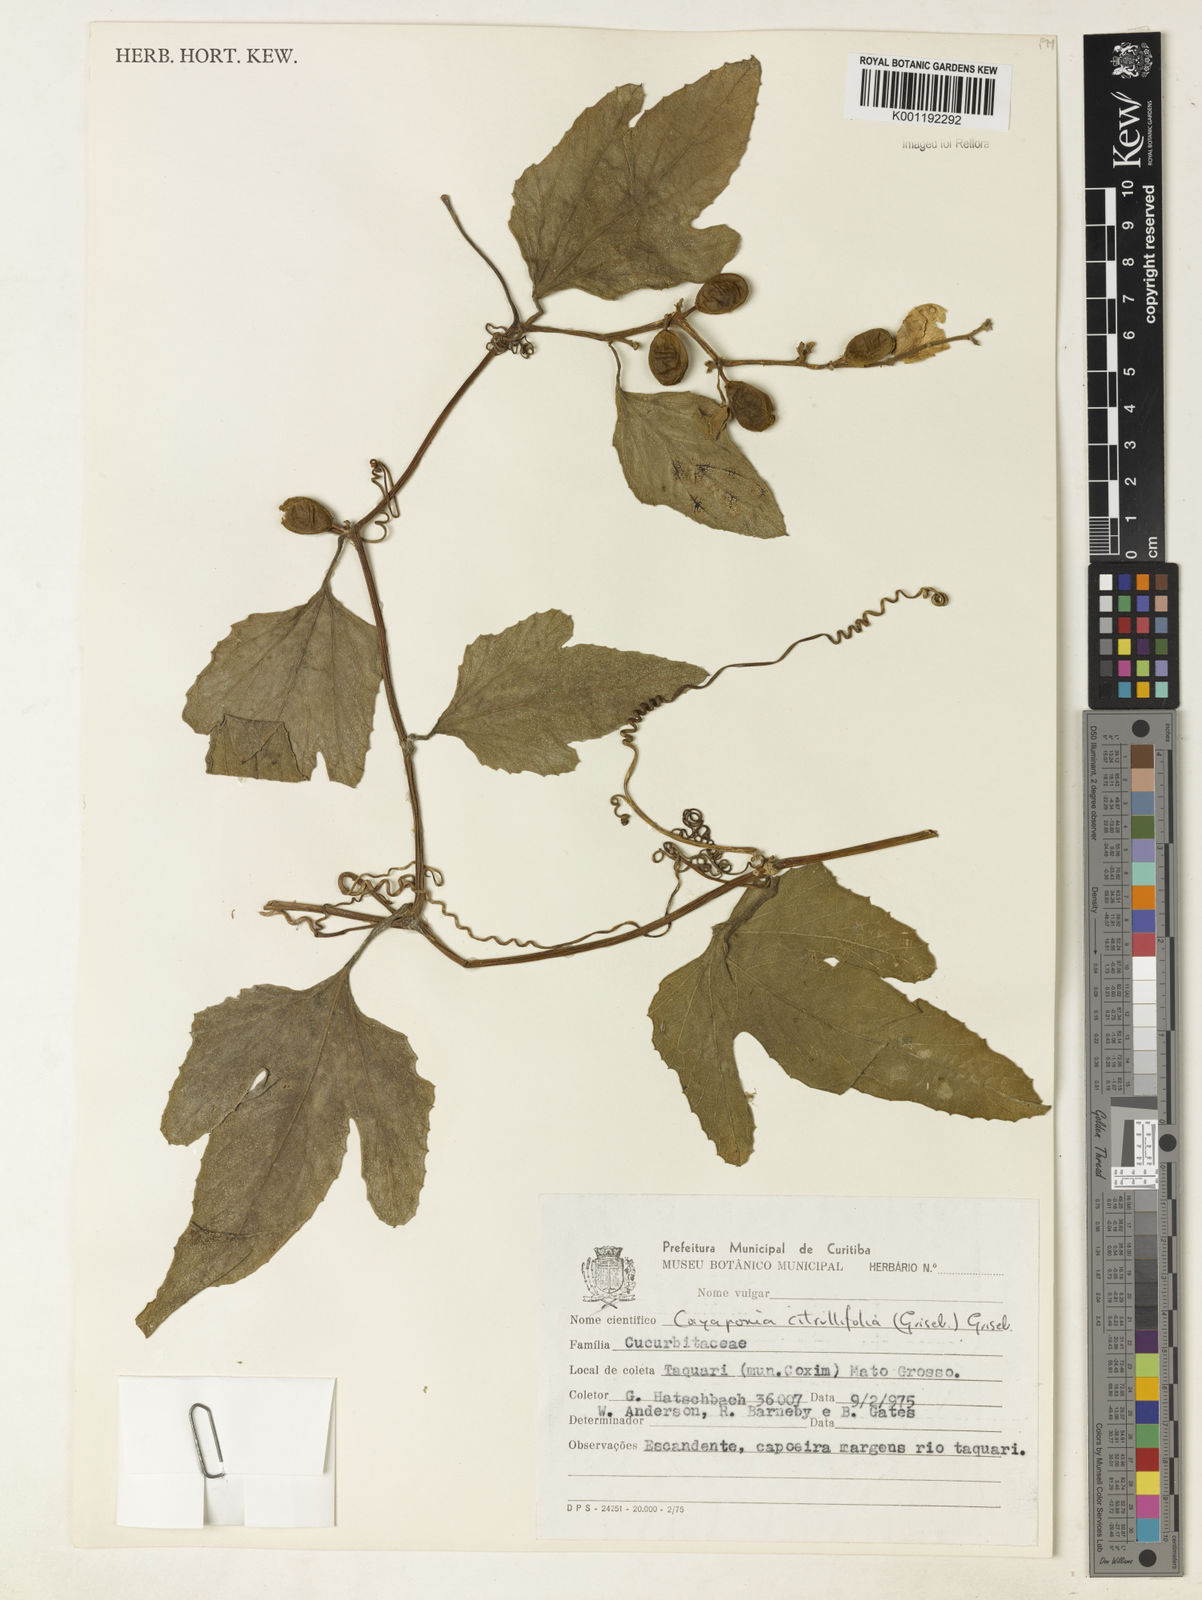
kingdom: Plantae
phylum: Tracheophyta
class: Magnoliopsida
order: Cucurbitales
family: Cucurbitaceae
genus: Cayaponia
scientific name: Cayaponia
